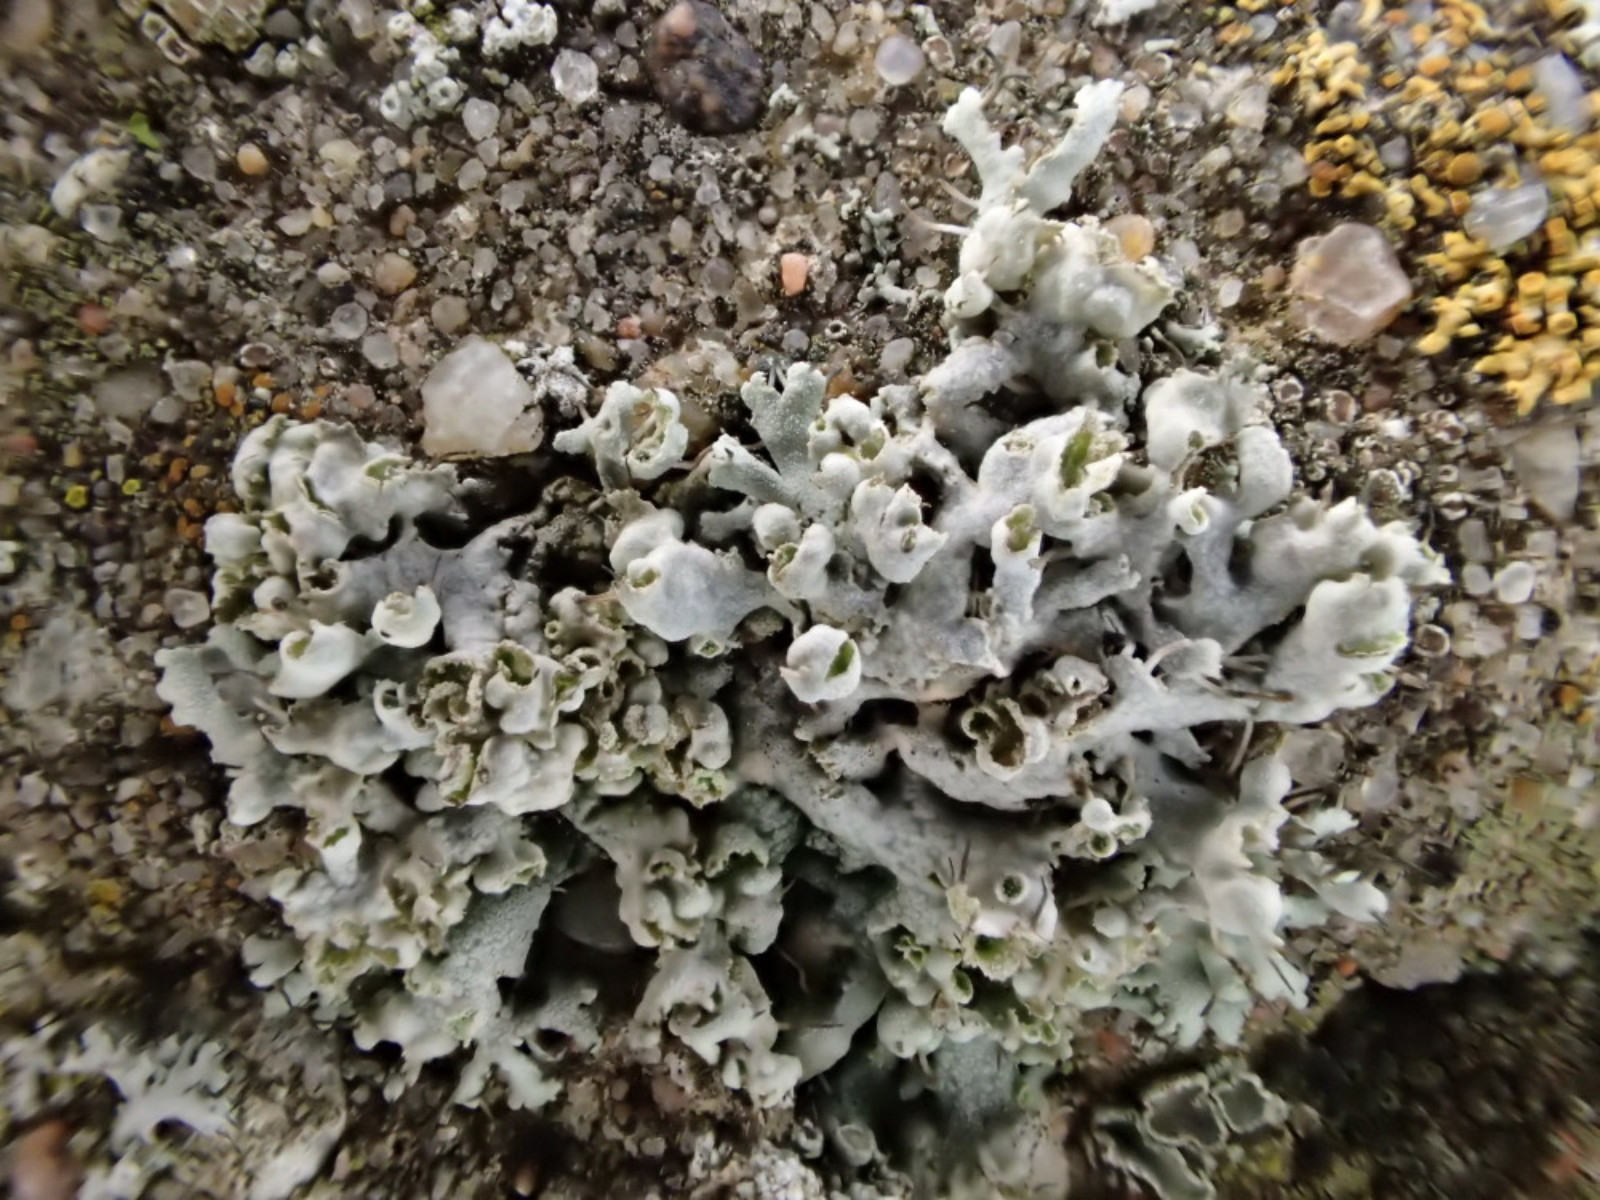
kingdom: Fungi
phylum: Ascomycota
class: Lecanoromycetes
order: Caliciales
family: Physciaceae
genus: Physcia
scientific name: Physcia adscendens
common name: hætte-rosetlav
